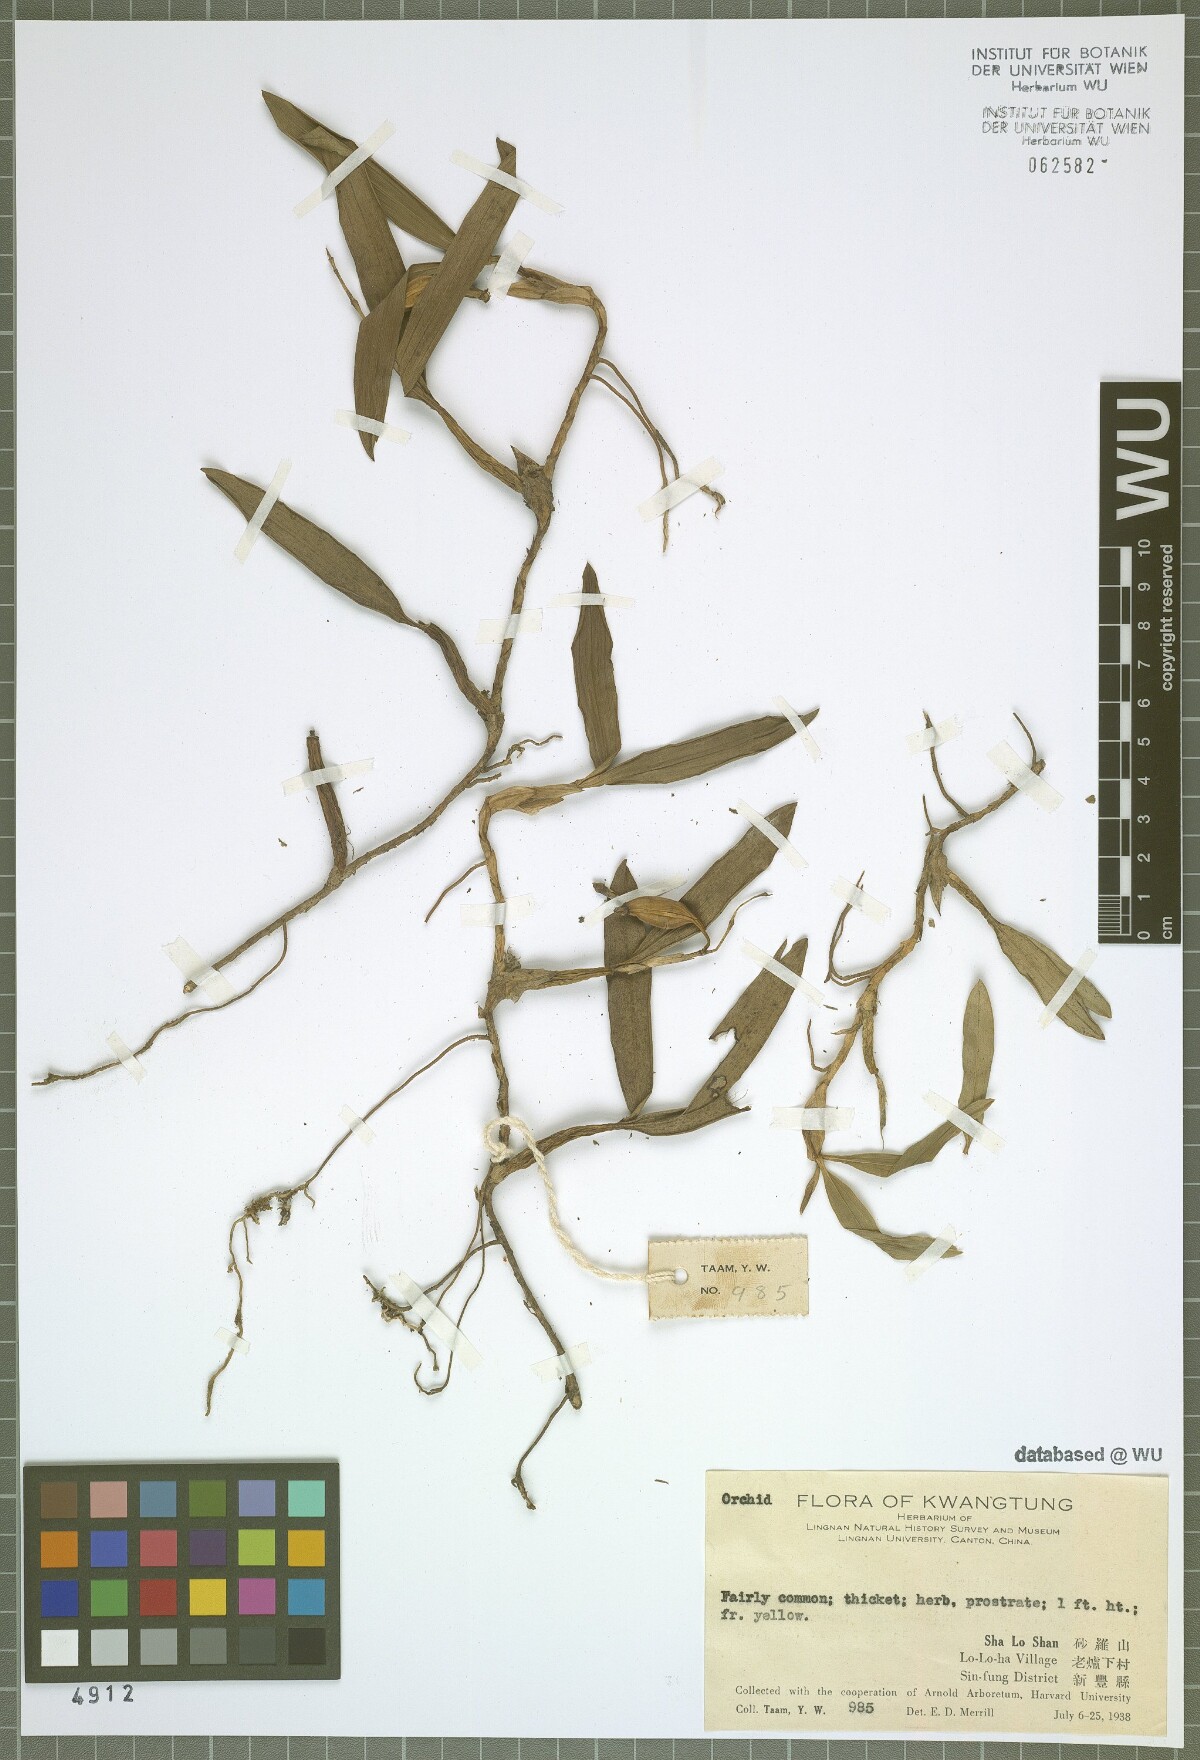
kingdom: Plantae
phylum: Tracheophyta
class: Liliopsida
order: Asparagales
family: Orchidaceae
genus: Coelogyne
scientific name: Coelogyne fimbriata
